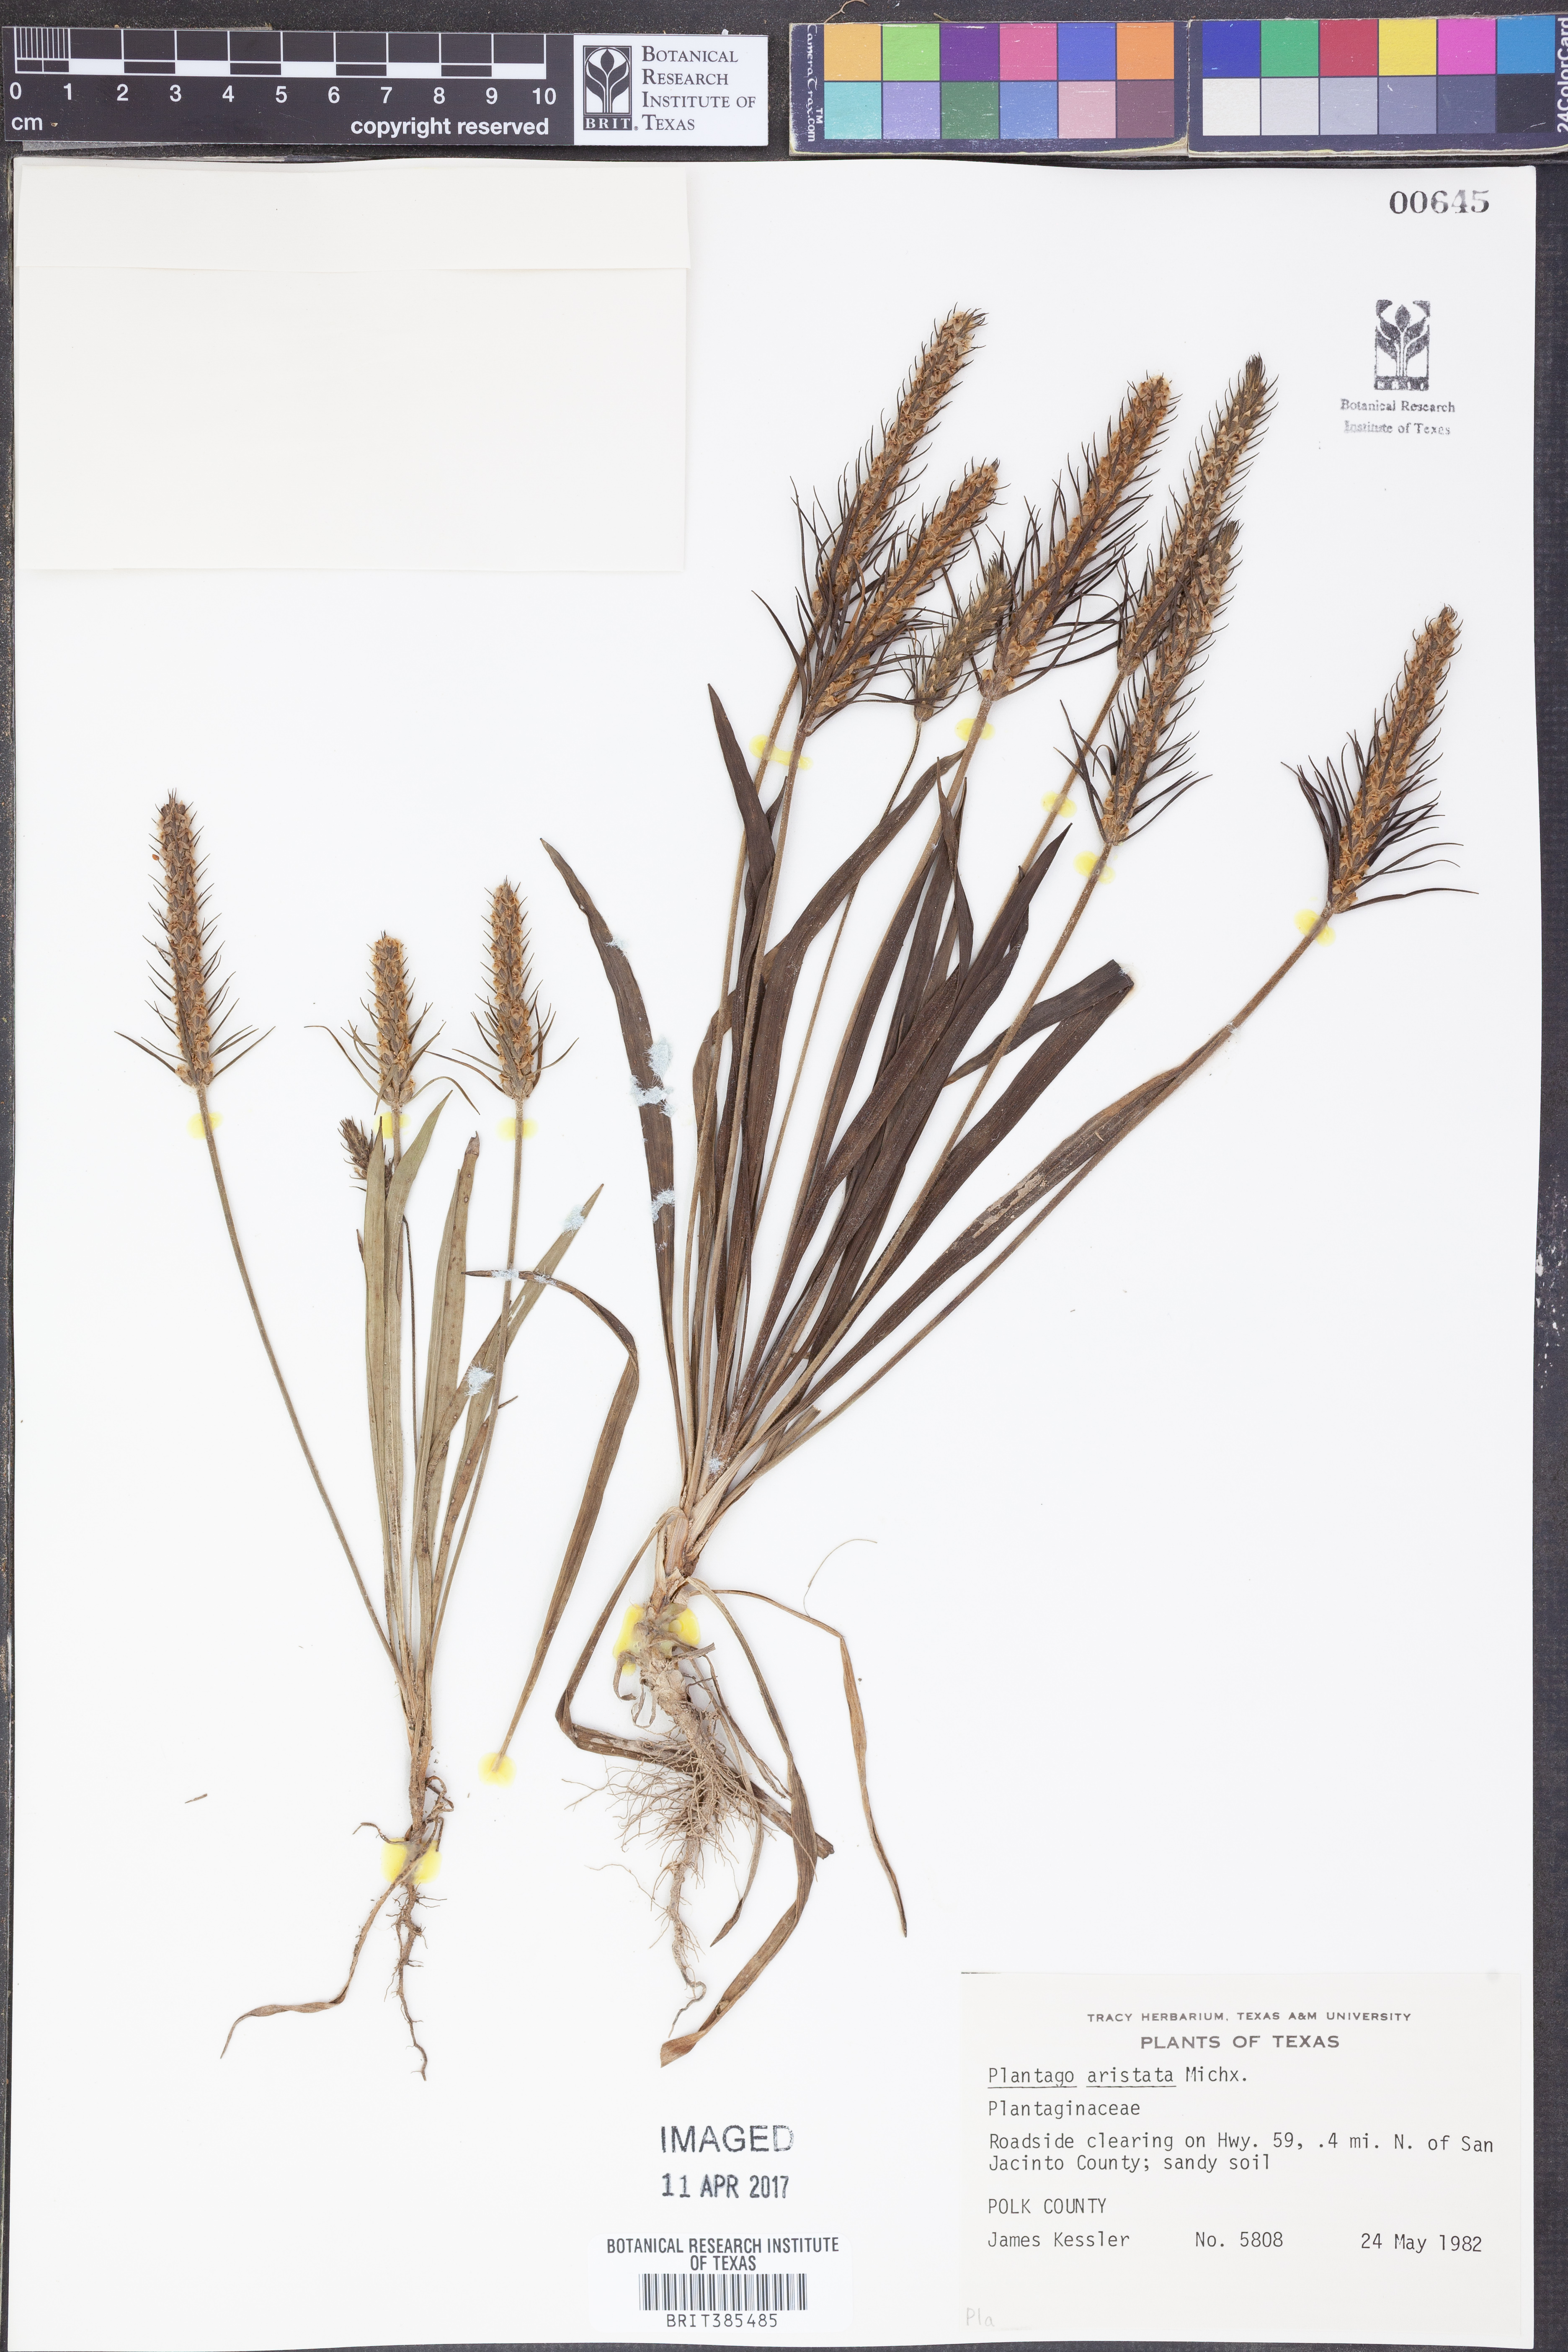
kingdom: Plantae
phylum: Tracheophyta
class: Magnoliopsida
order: Lamiales
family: Plantaginaceae
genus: Plantago
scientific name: Plantago aristata
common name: Bracted plantain
